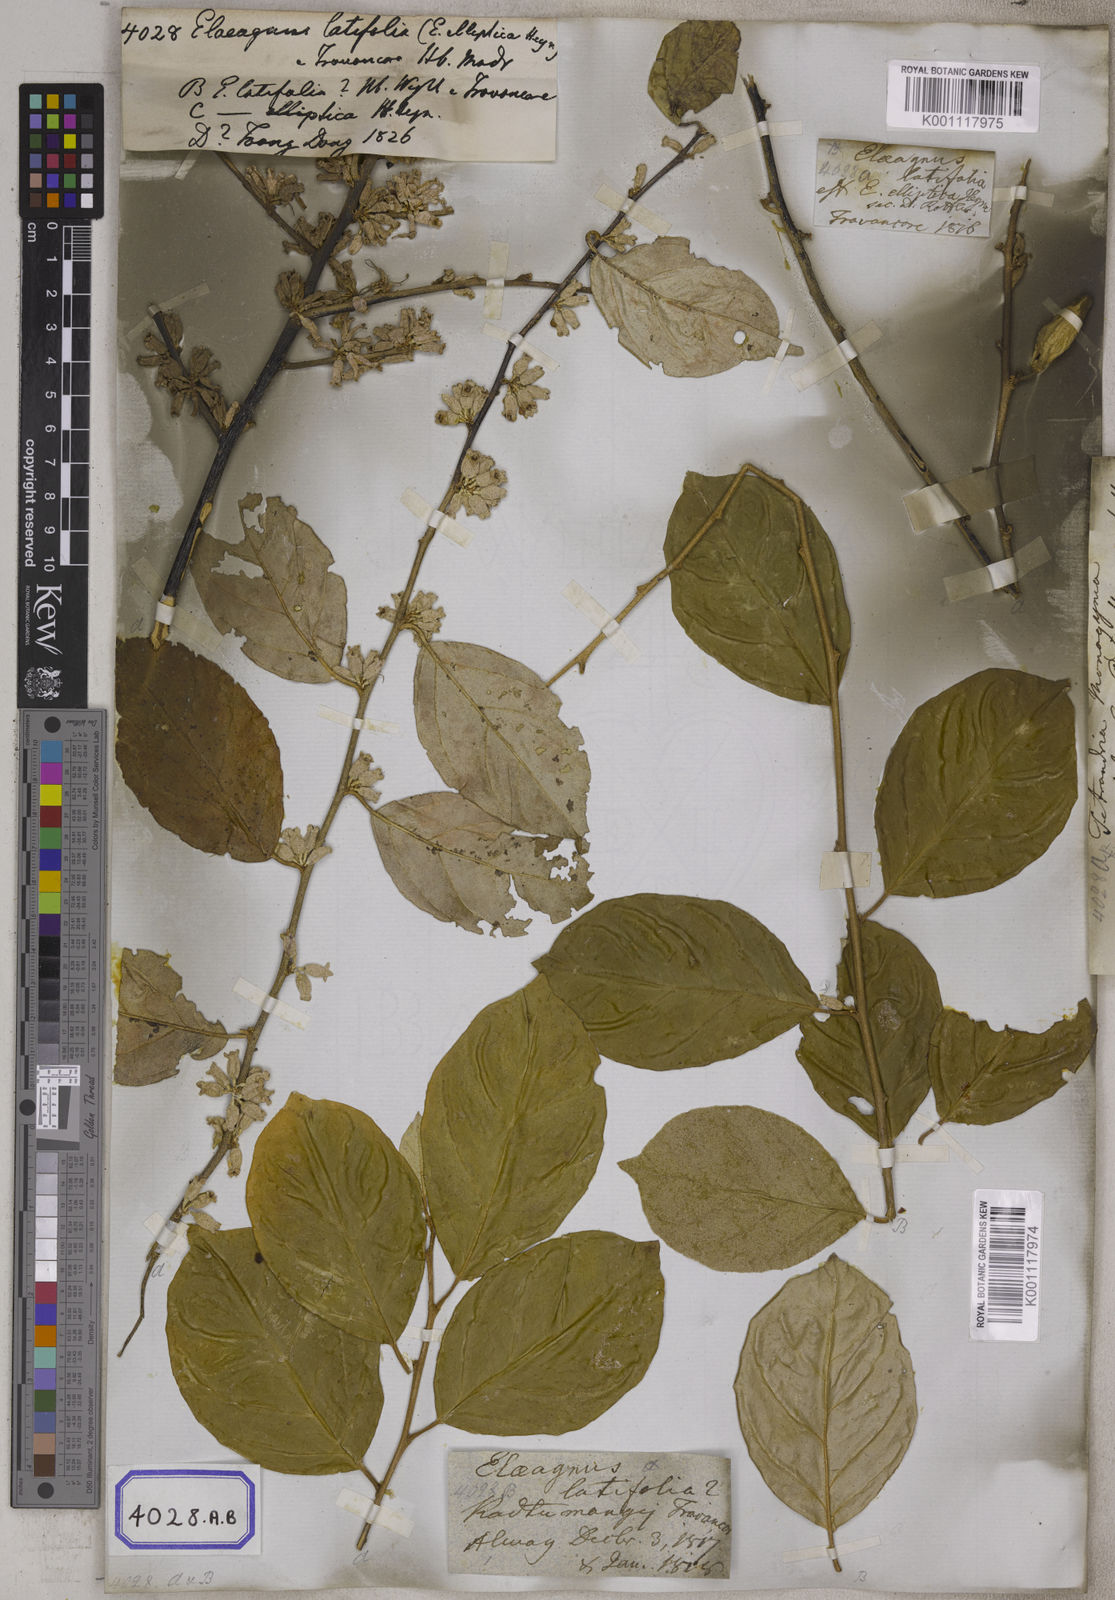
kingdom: Plantae
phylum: Tracheophyta
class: Magnoliopsida
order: Rosales
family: Elaeagnaceae
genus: Elaeagnus
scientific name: Elaeagnus latifolia
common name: Oleaster
